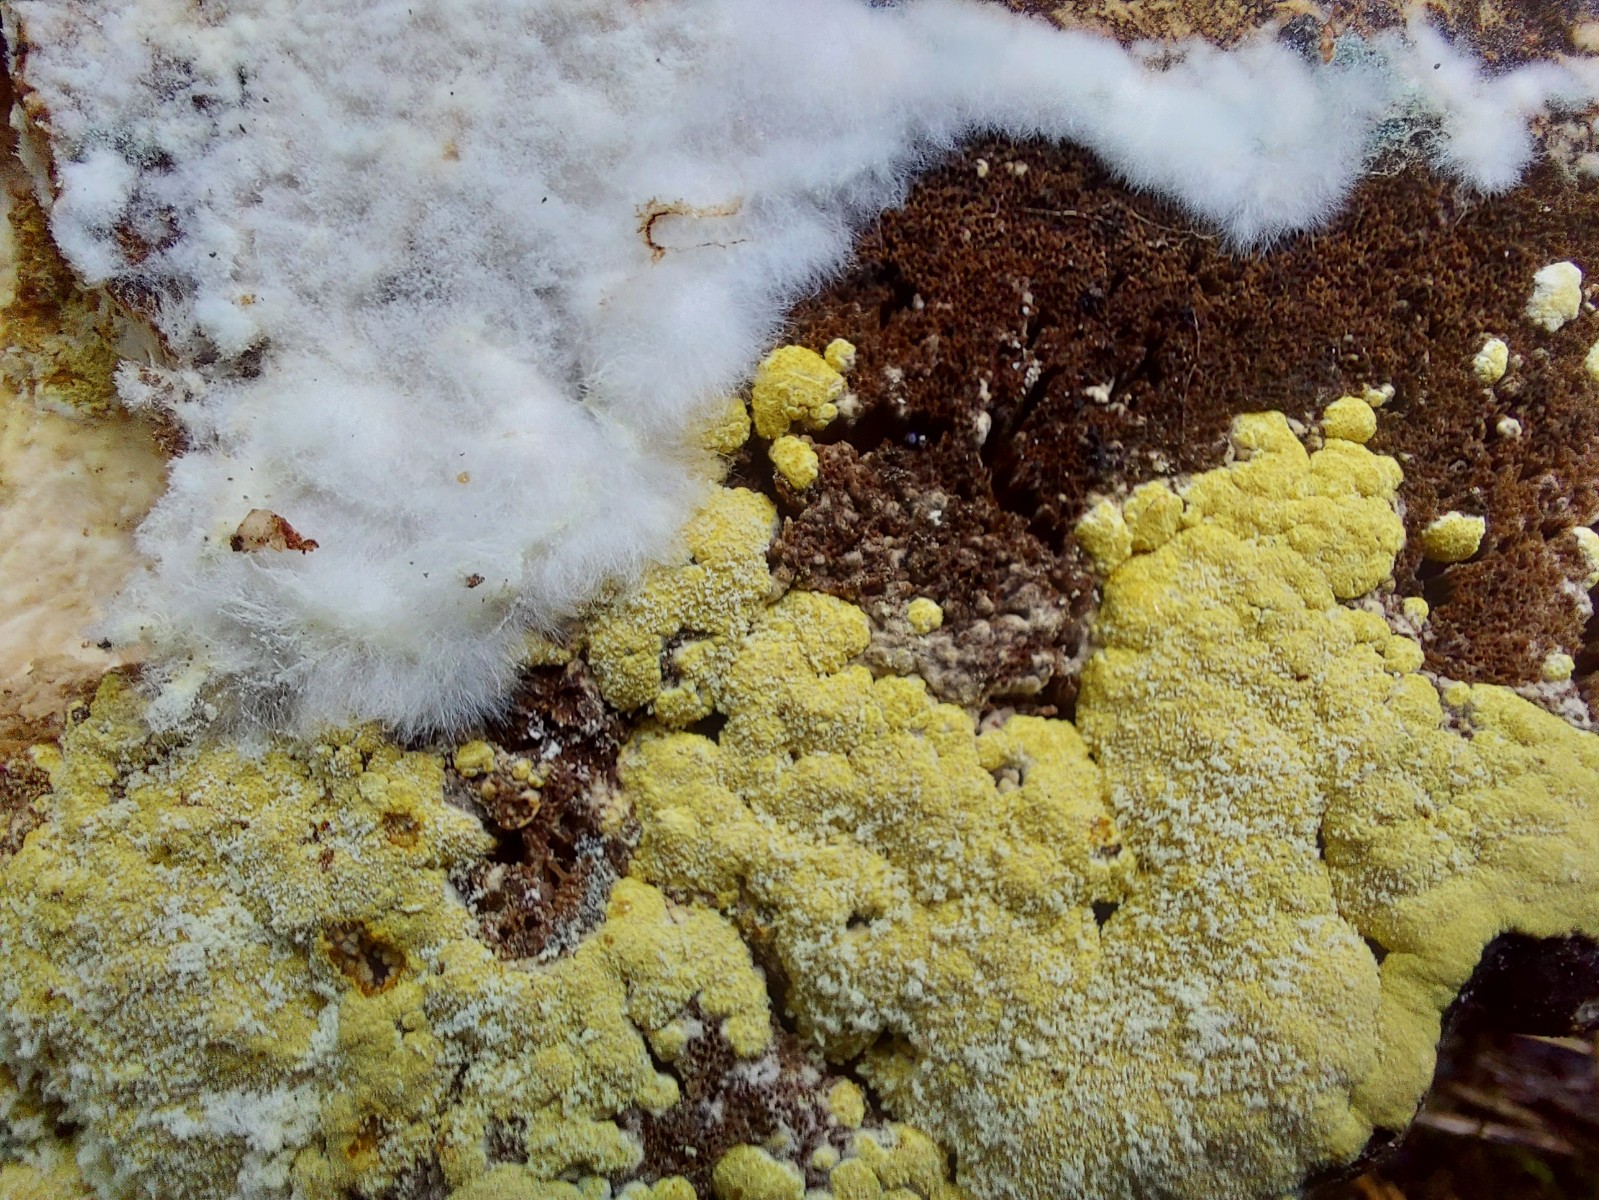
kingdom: Fungi
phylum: Ascomycota
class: Sordariomycetes
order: Hypocreales
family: Hypocreaceae
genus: Trichoderma
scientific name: Trichoderma pulvinatum
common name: snyltende kødkerne
